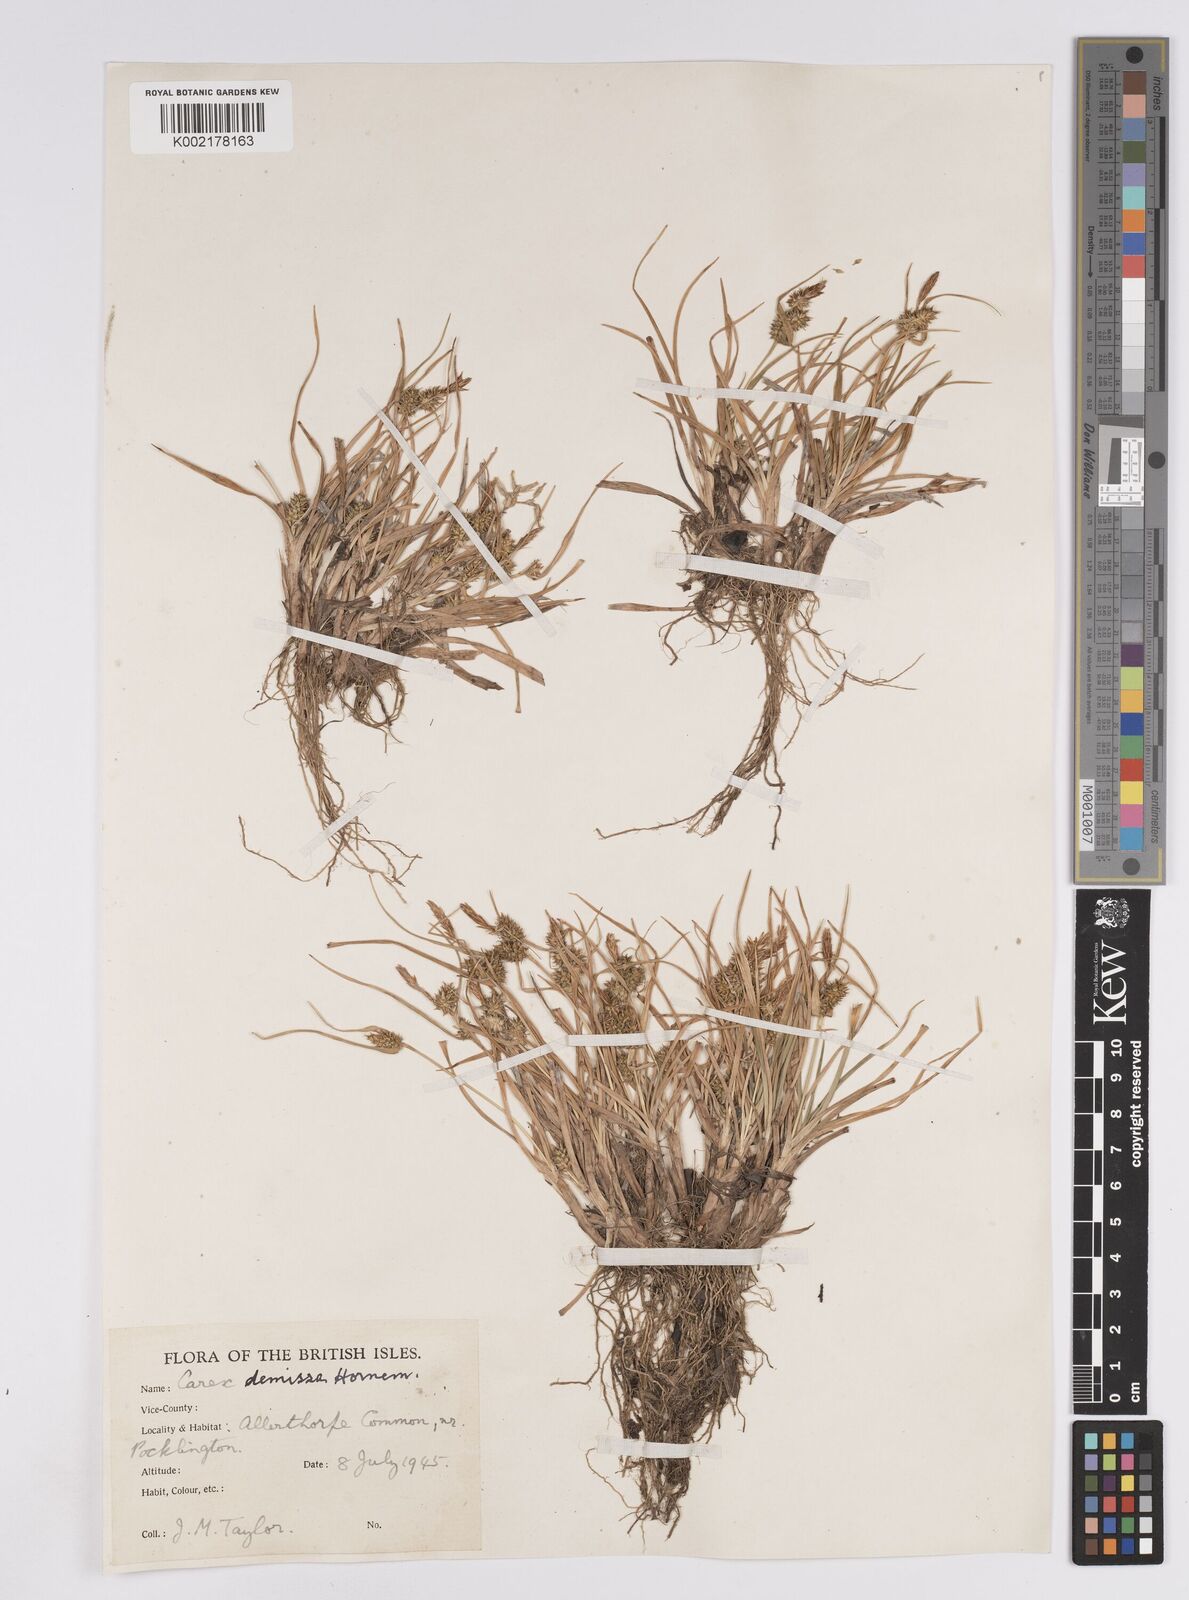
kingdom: Plantae
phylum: Tracheophyta
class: Liliopsida
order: Poales
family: Cyperaceae
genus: Carex
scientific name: Carex demissa
